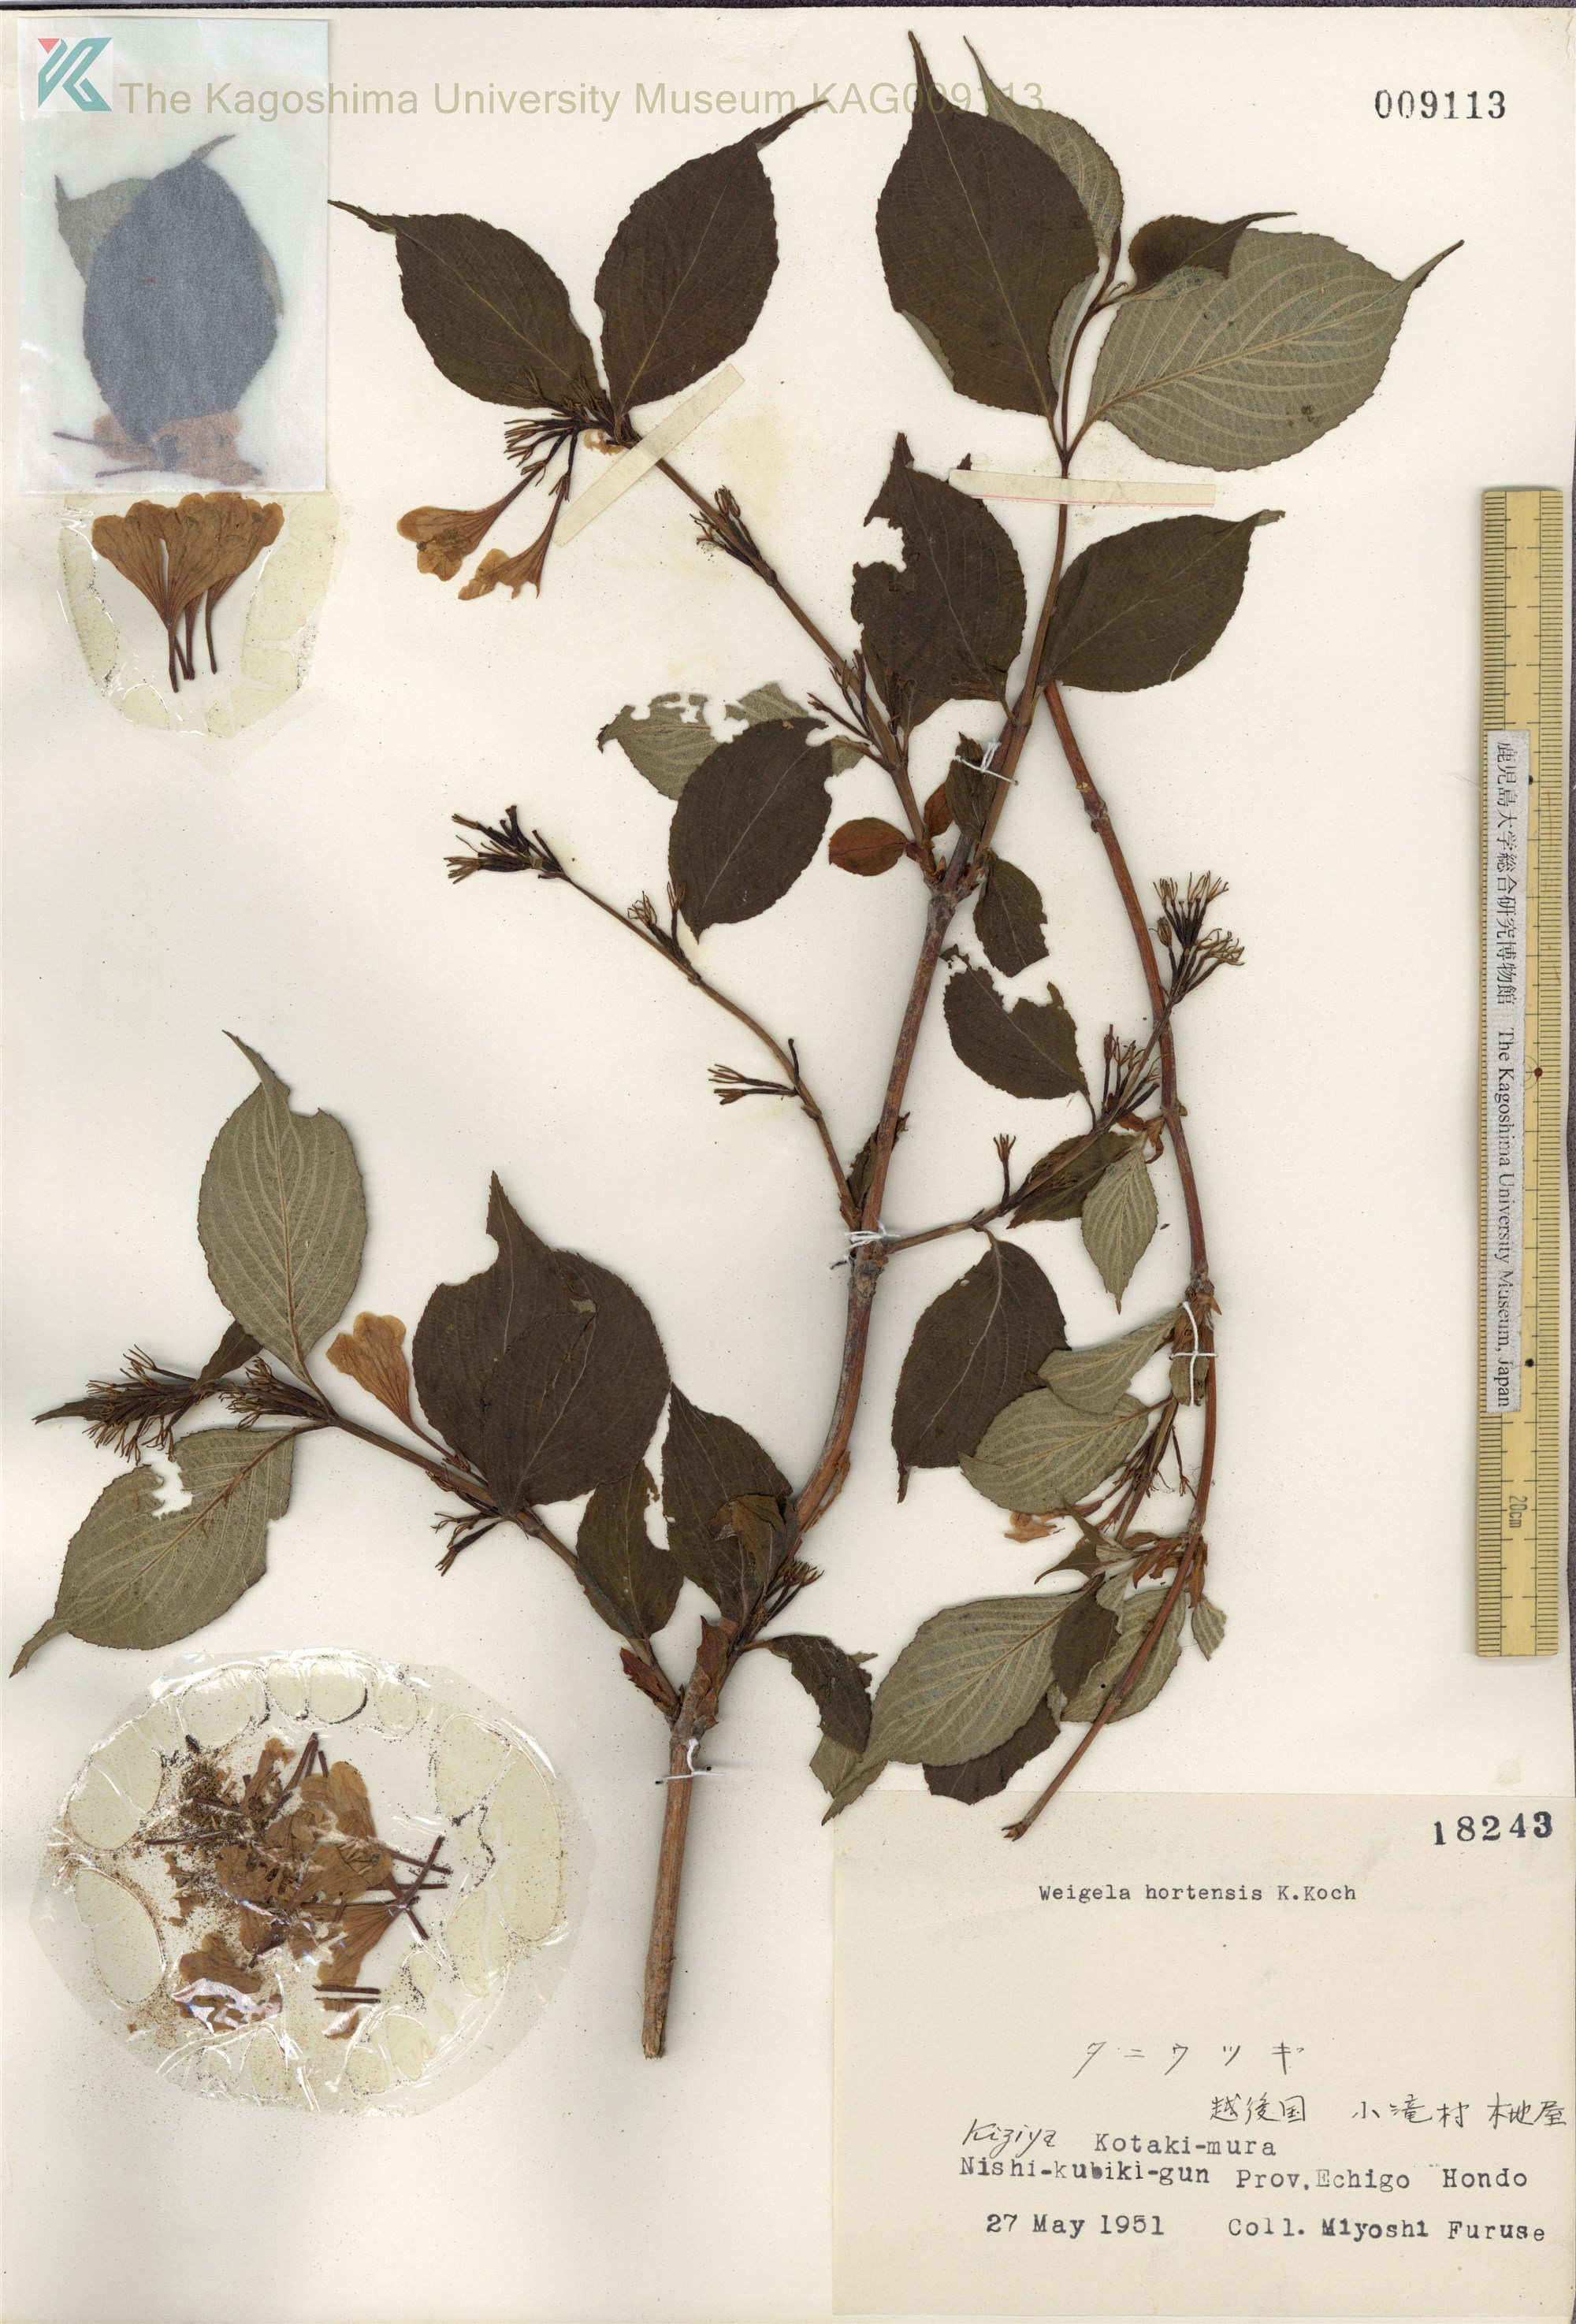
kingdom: Plantae
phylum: Tracheophyta
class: Magnoliopsida
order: Dipsacales
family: Caprifoliaceae
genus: Weigela
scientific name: Weigela hortensis
